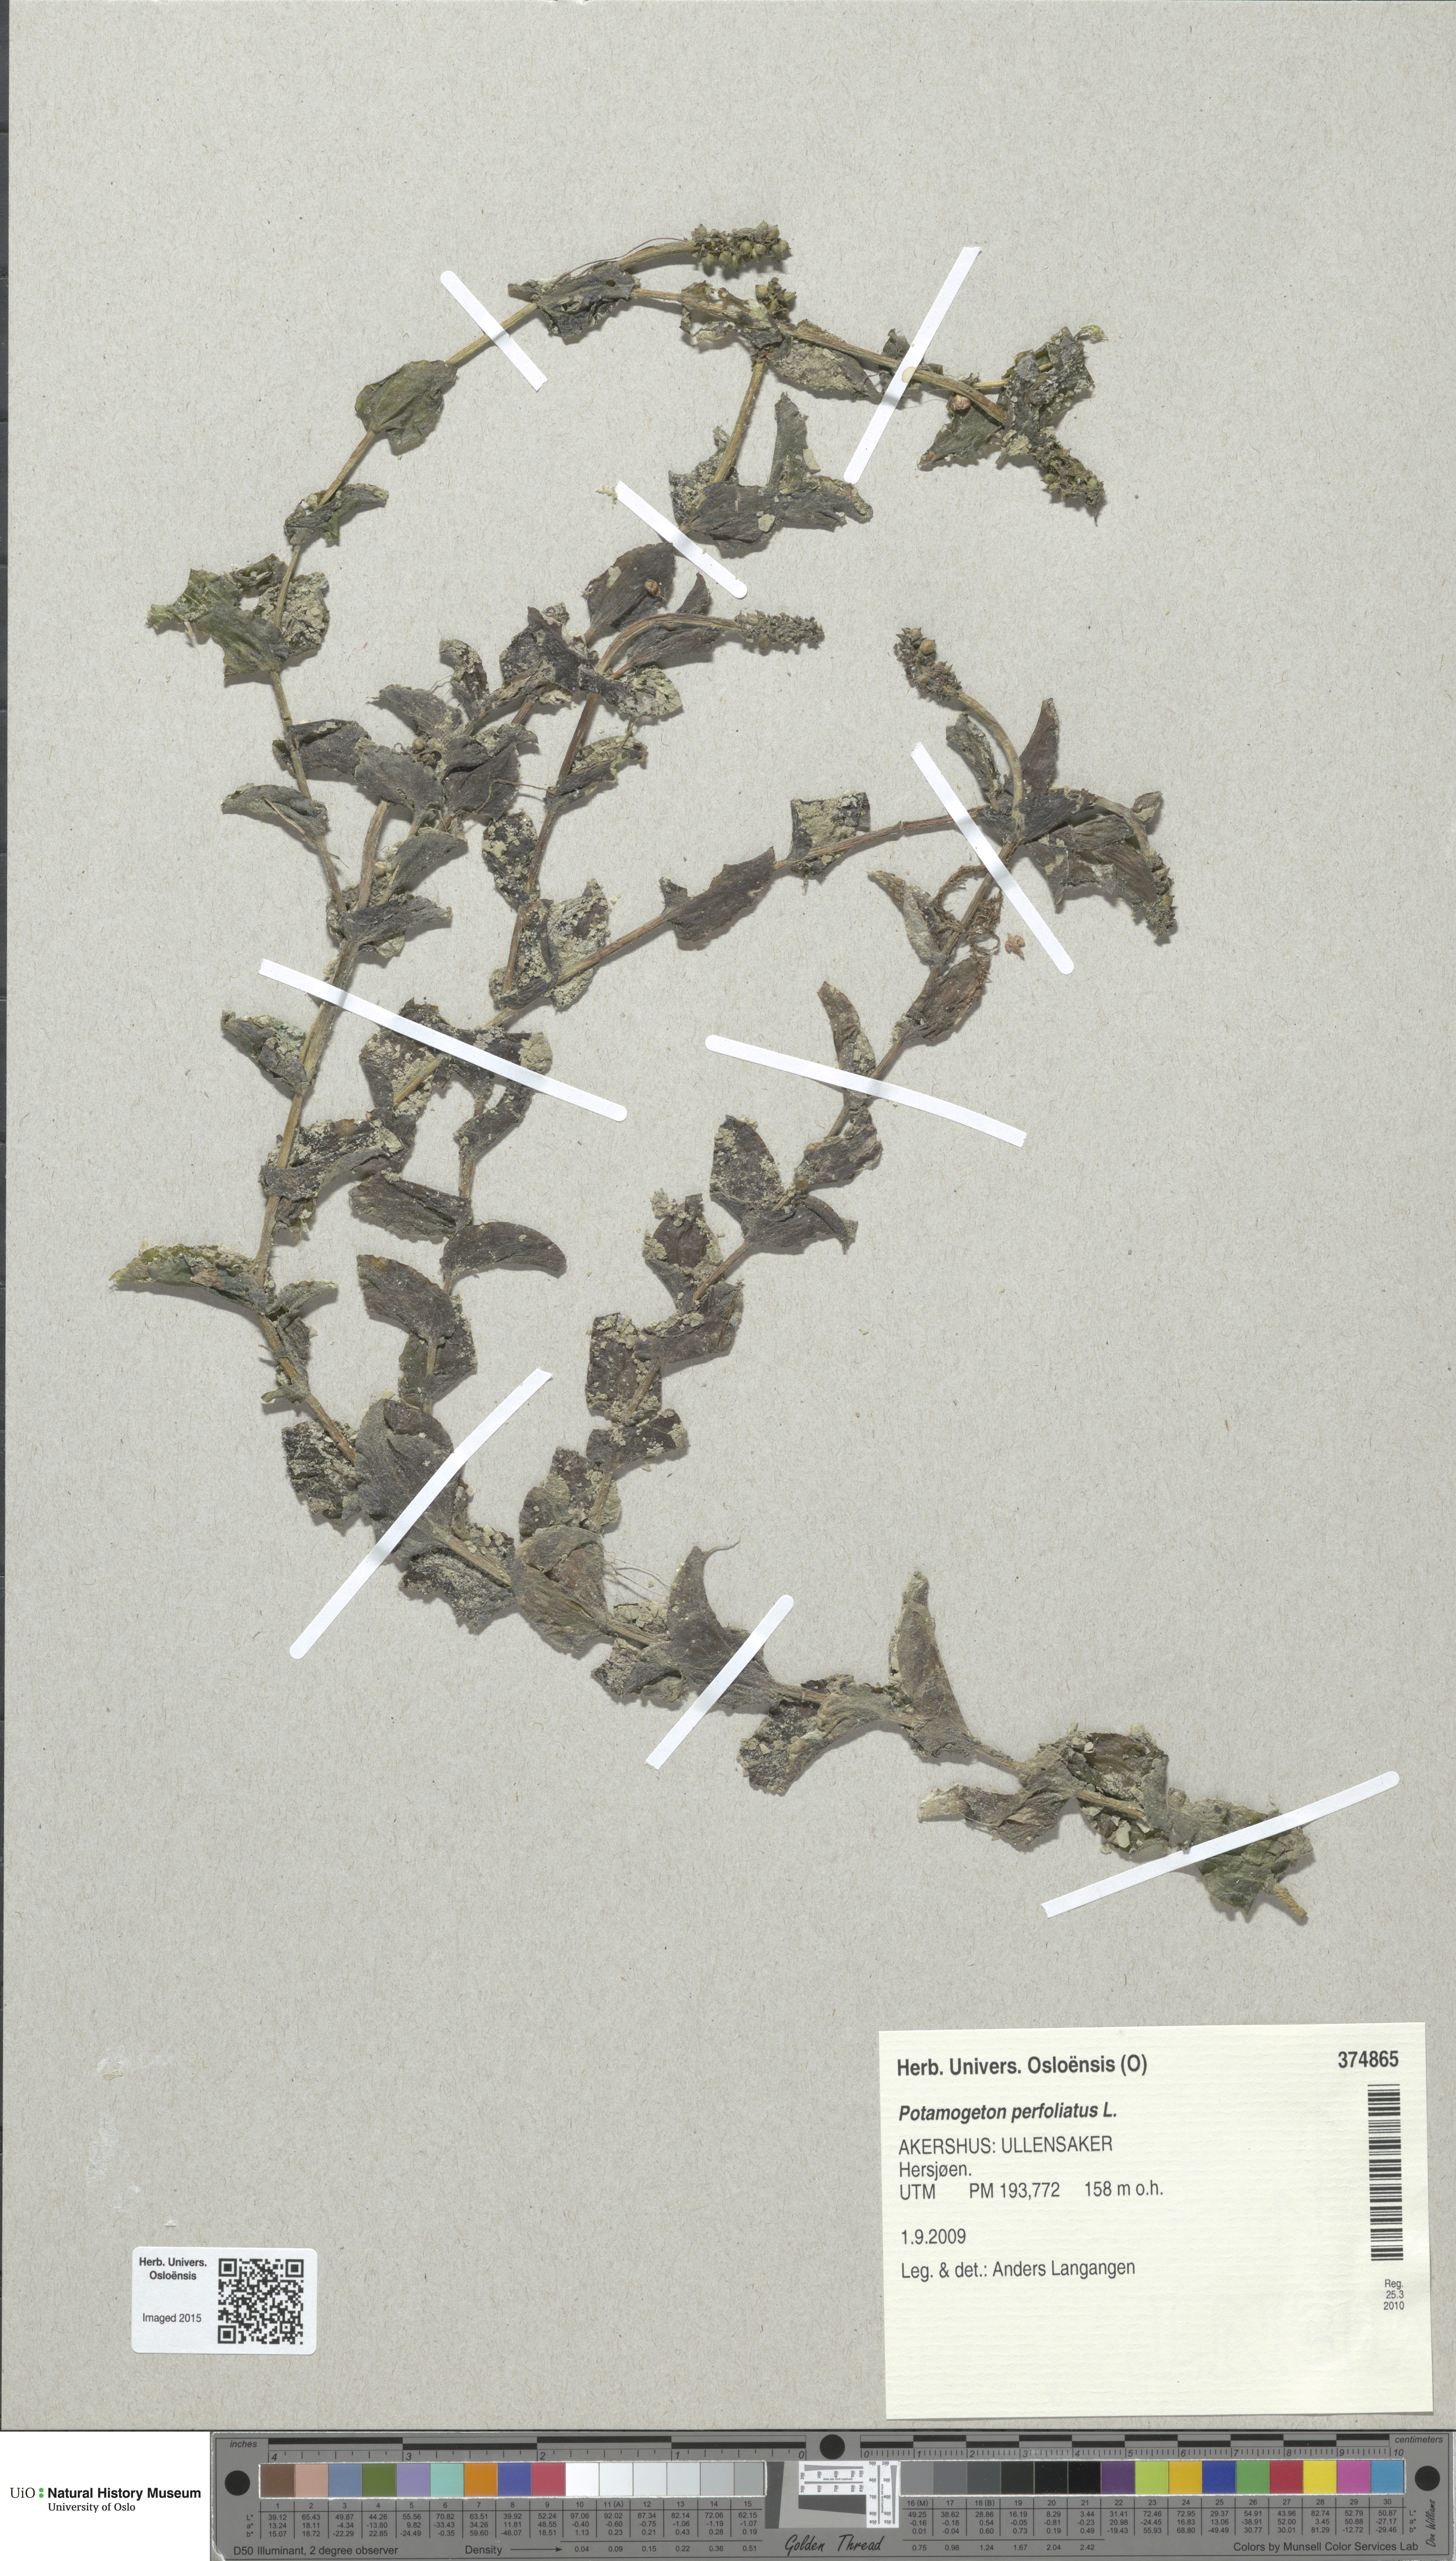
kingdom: Plantae
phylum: Tracheophyta
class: Liliopsida
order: Alismatales
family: Potamogetonaceae
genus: Potamogeton
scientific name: Potamogeton perfoliatus
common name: Perfoliate pondweed
